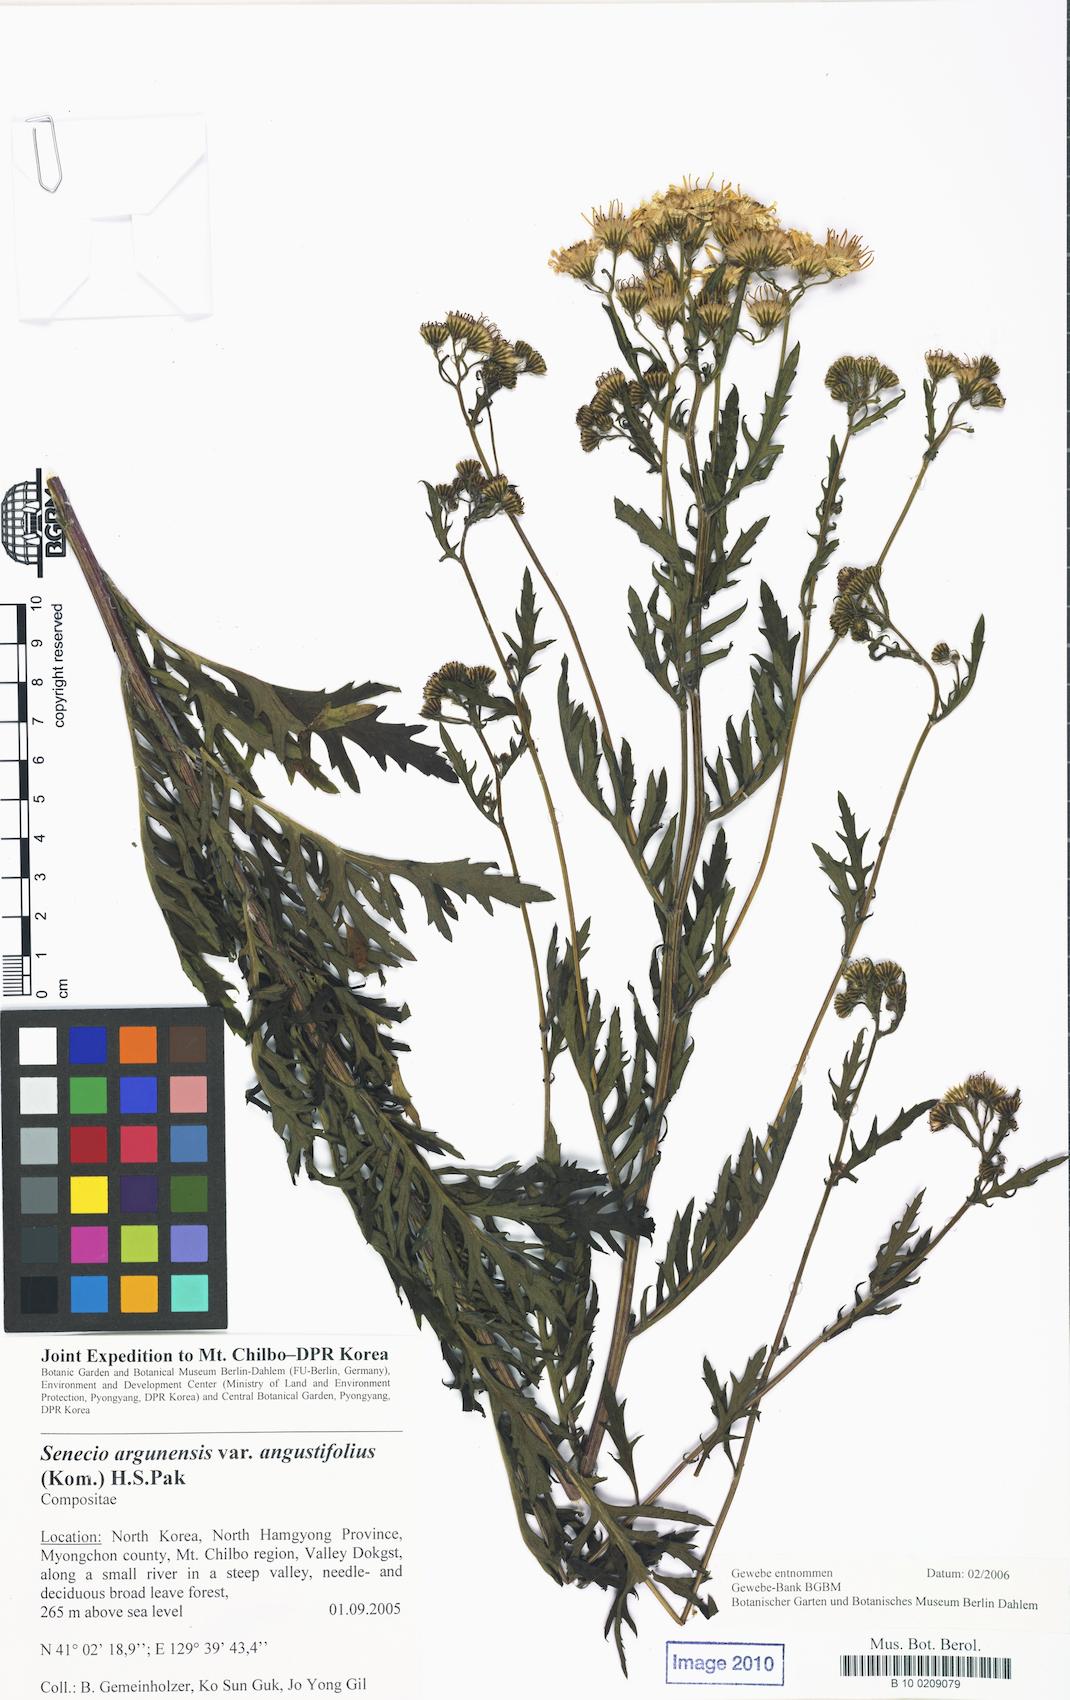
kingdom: Plantae
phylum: Tracheophyta
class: Magnoliopsida
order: Asterales
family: Asteraceae
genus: Jacobaea
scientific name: Jacobaea erucifolia
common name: Hoary ragwort
